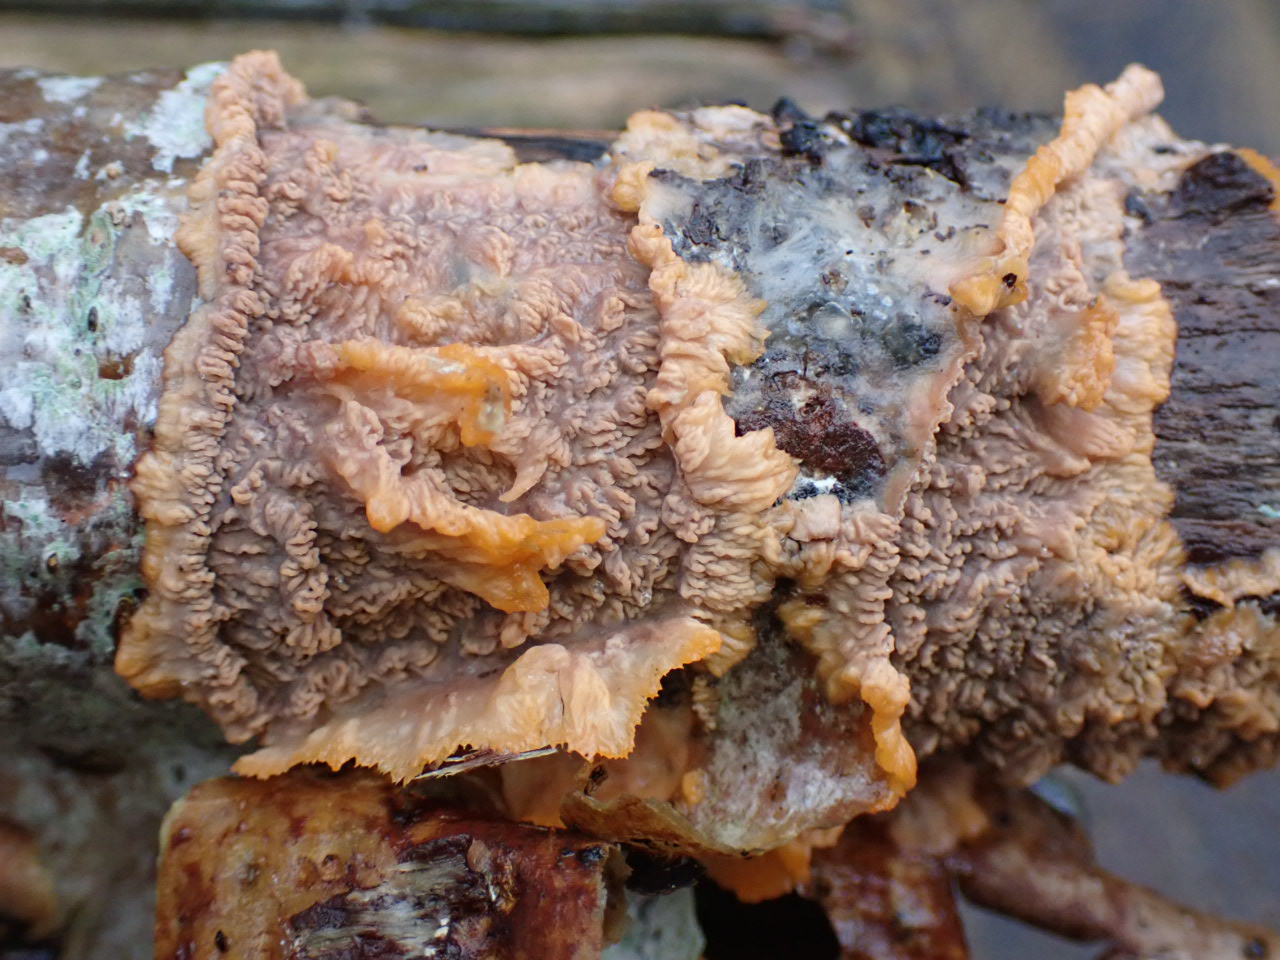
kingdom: Fungi
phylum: Basidiomycota
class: Agaricomycetes
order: Polyporales
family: Meruliaceae
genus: Phlebia
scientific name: Phlebia radiata
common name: stråle-åresvamp
